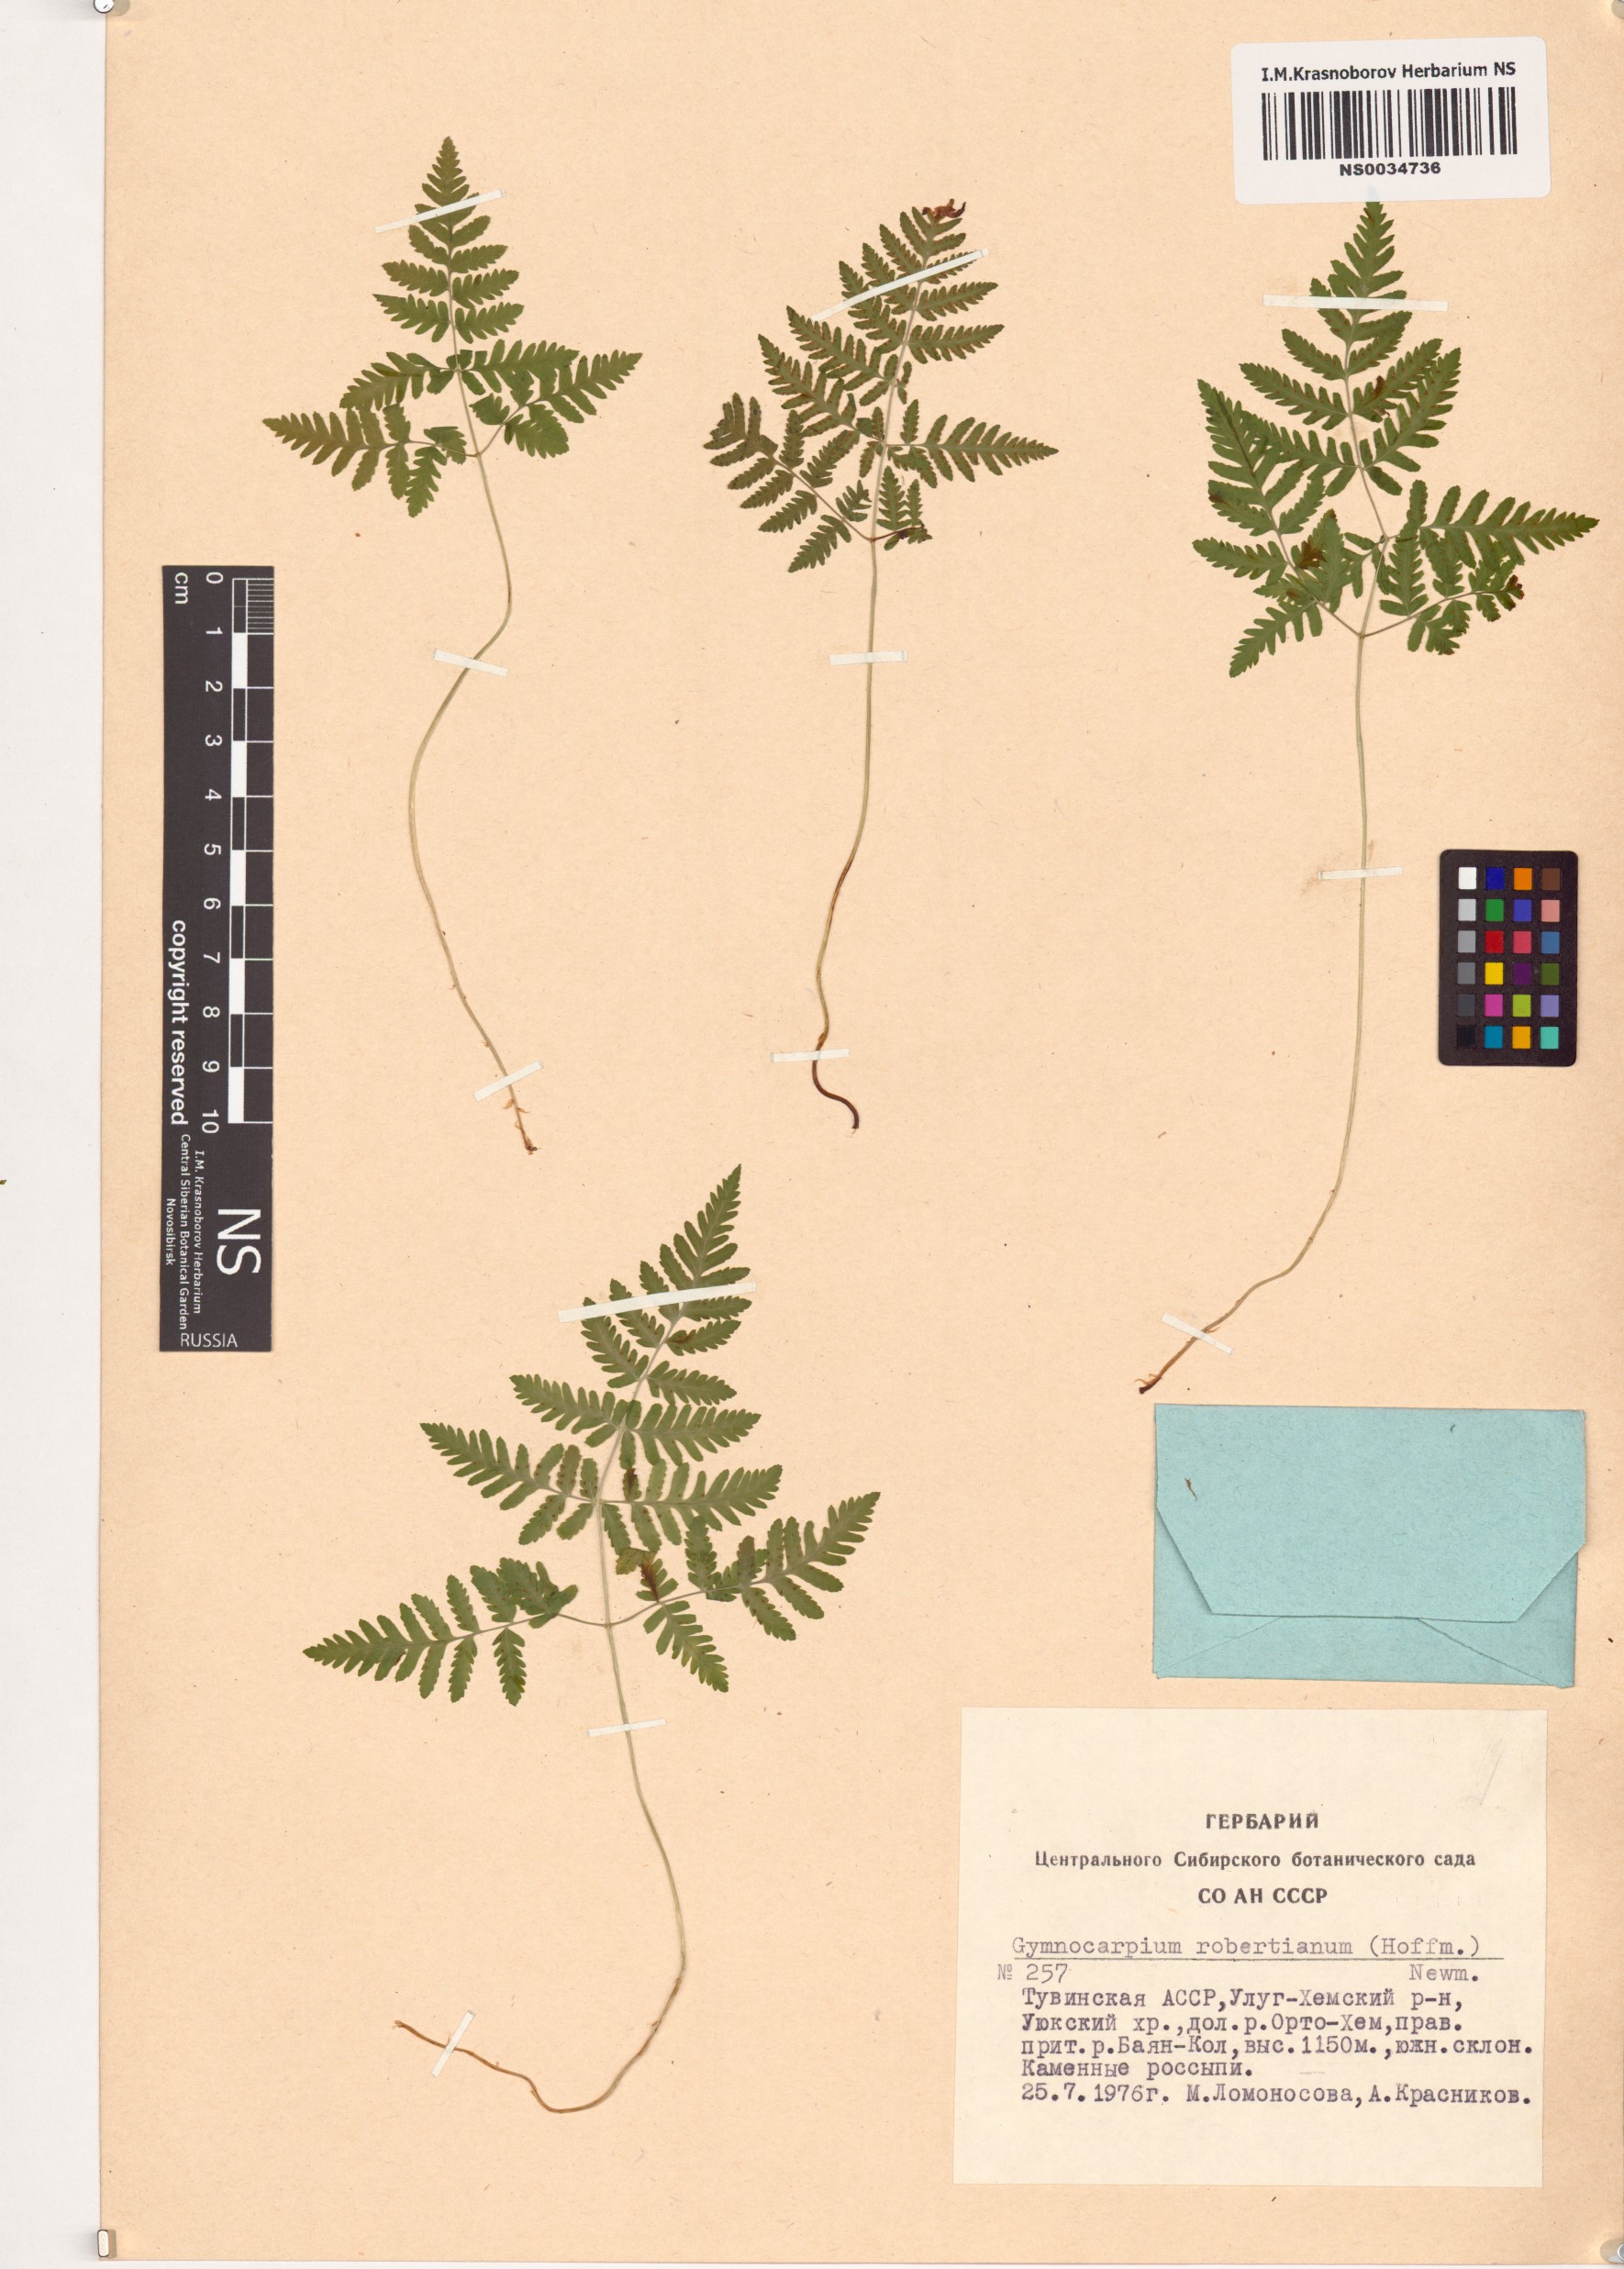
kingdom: Plantae
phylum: Tracheophyta
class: Polypodiopsida
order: Polypodiales
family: Cystopteridaceae
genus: Gymnocarpium
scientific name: Gymnocarpium robertianum
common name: Limestone fern
